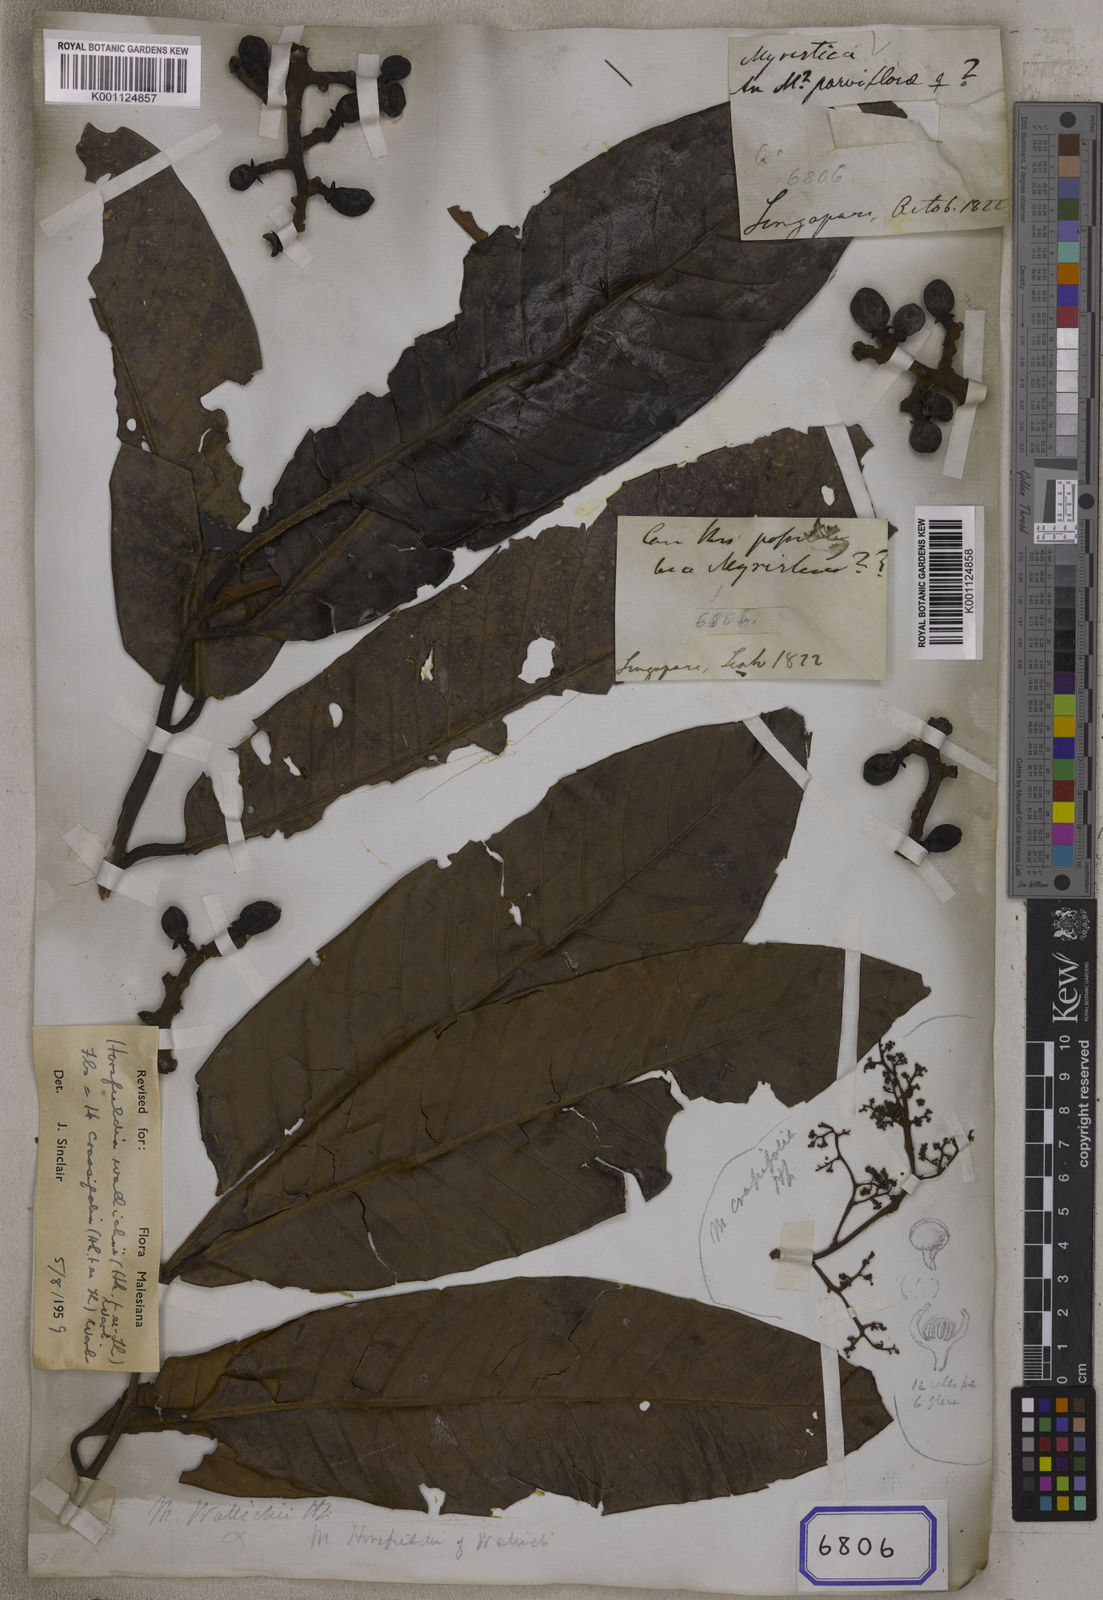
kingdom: Plantae
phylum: Tracheophyta
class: Magnoliopsida
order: Magnoliales
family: Myristicaceae
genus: Myristica
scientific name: Myristica
